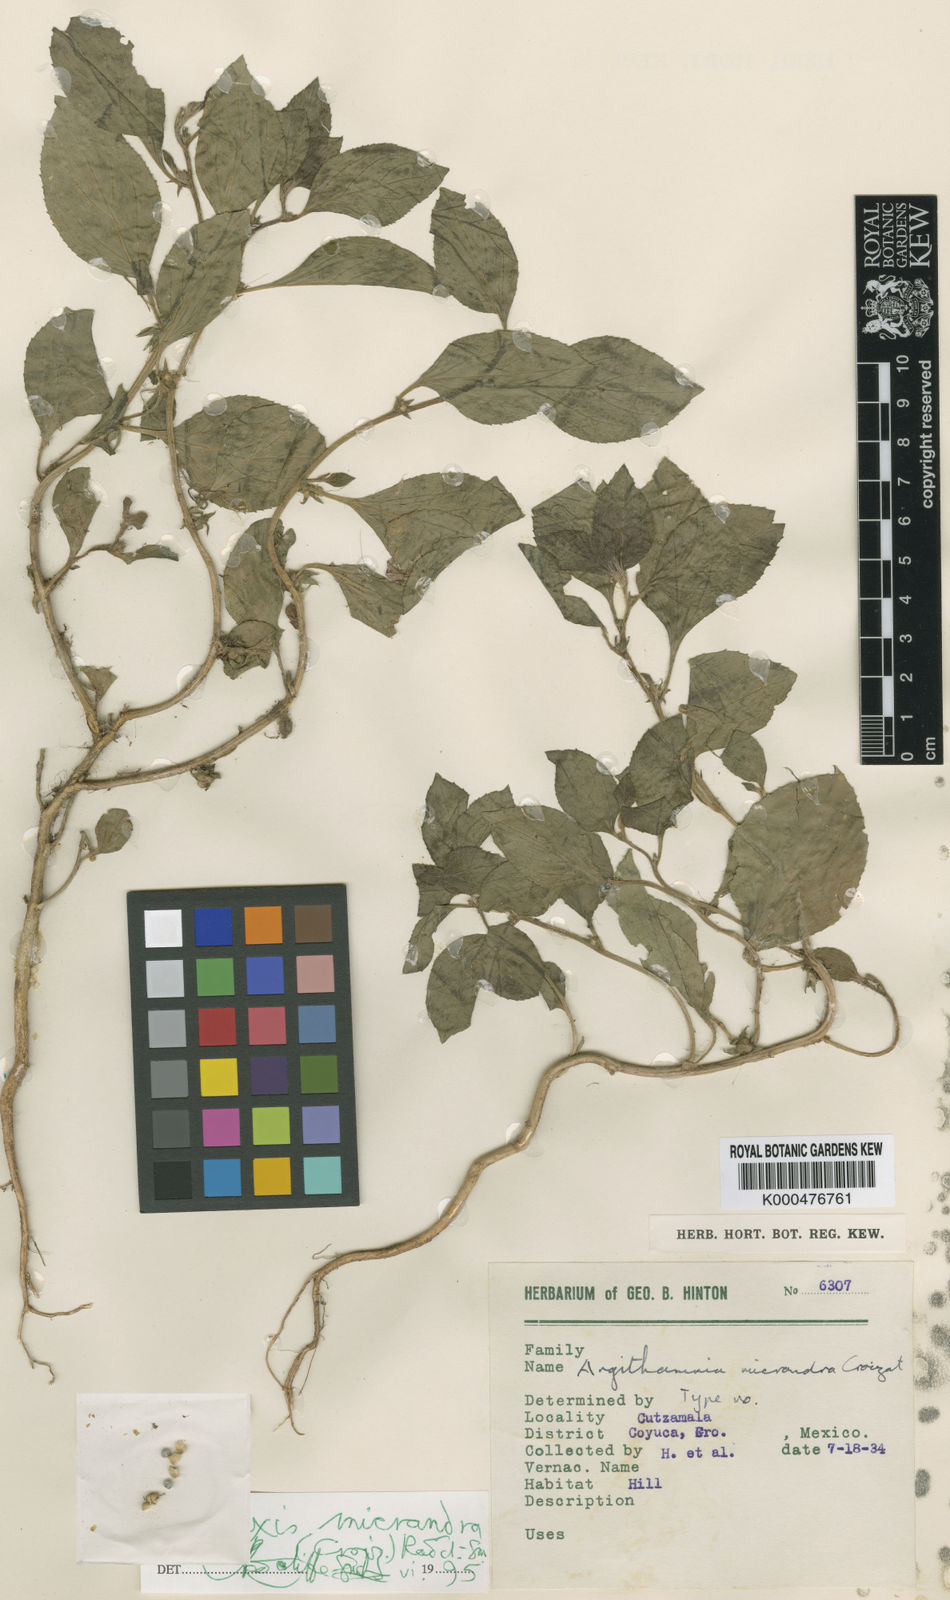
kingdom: Plantae
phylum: Tracheophyta
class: Magnoliopsida
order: Malpighiales
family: Euphorbiaceae
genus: Ditaxis
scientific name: Ditaxis serrata
